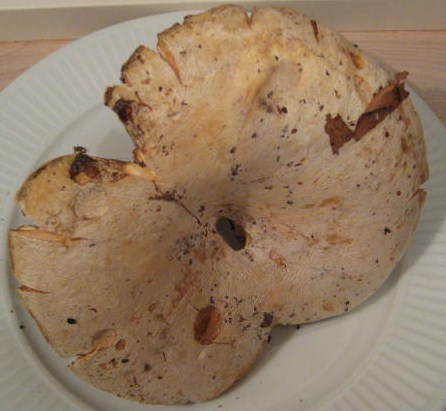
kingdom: Fungi
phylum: Basidiomycota
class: Agaricomycetes
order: Russulales
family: Russulaceae
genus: Lactifluus
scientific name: Lactifluus vellereus
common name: hvidfiltet mælkehat
